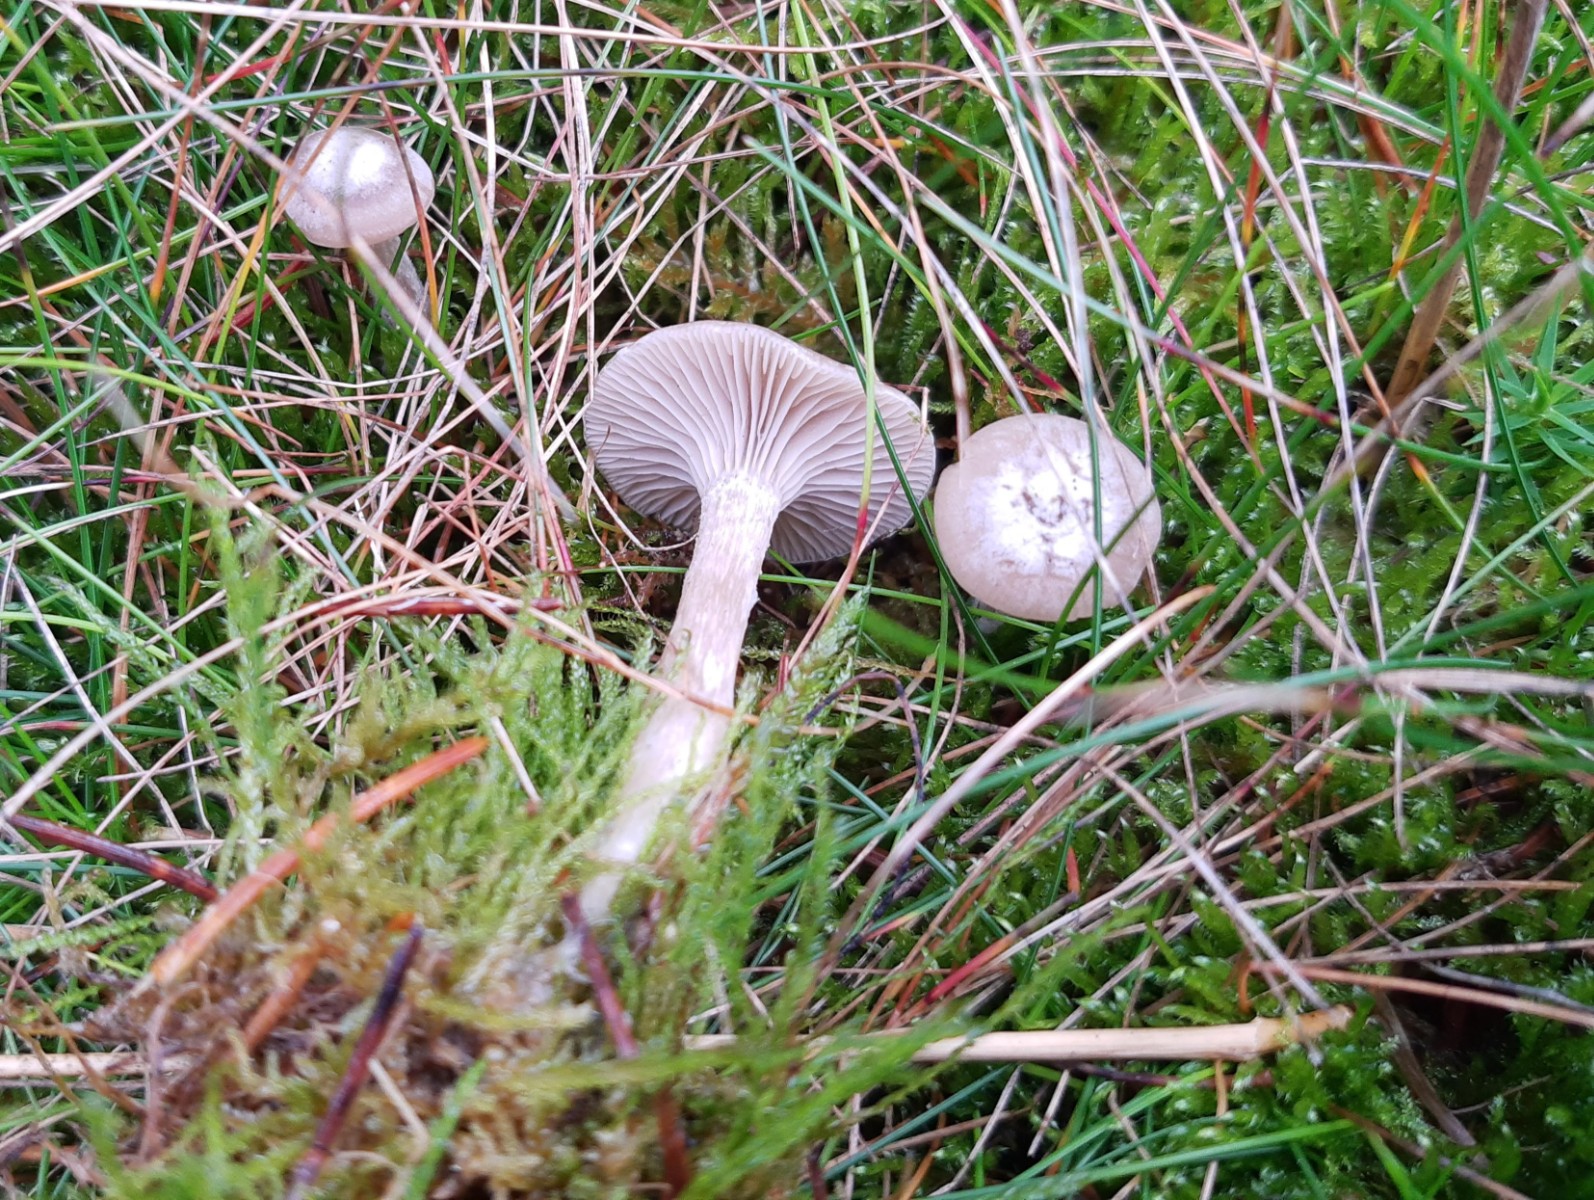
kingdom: Fungi
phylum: Basidiomycota
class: Agaricomycetes
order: Agaricales
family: Tricholomataceae
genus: Clitocybe
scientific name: Clitocybe vibecina
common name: randstribet tragthat
